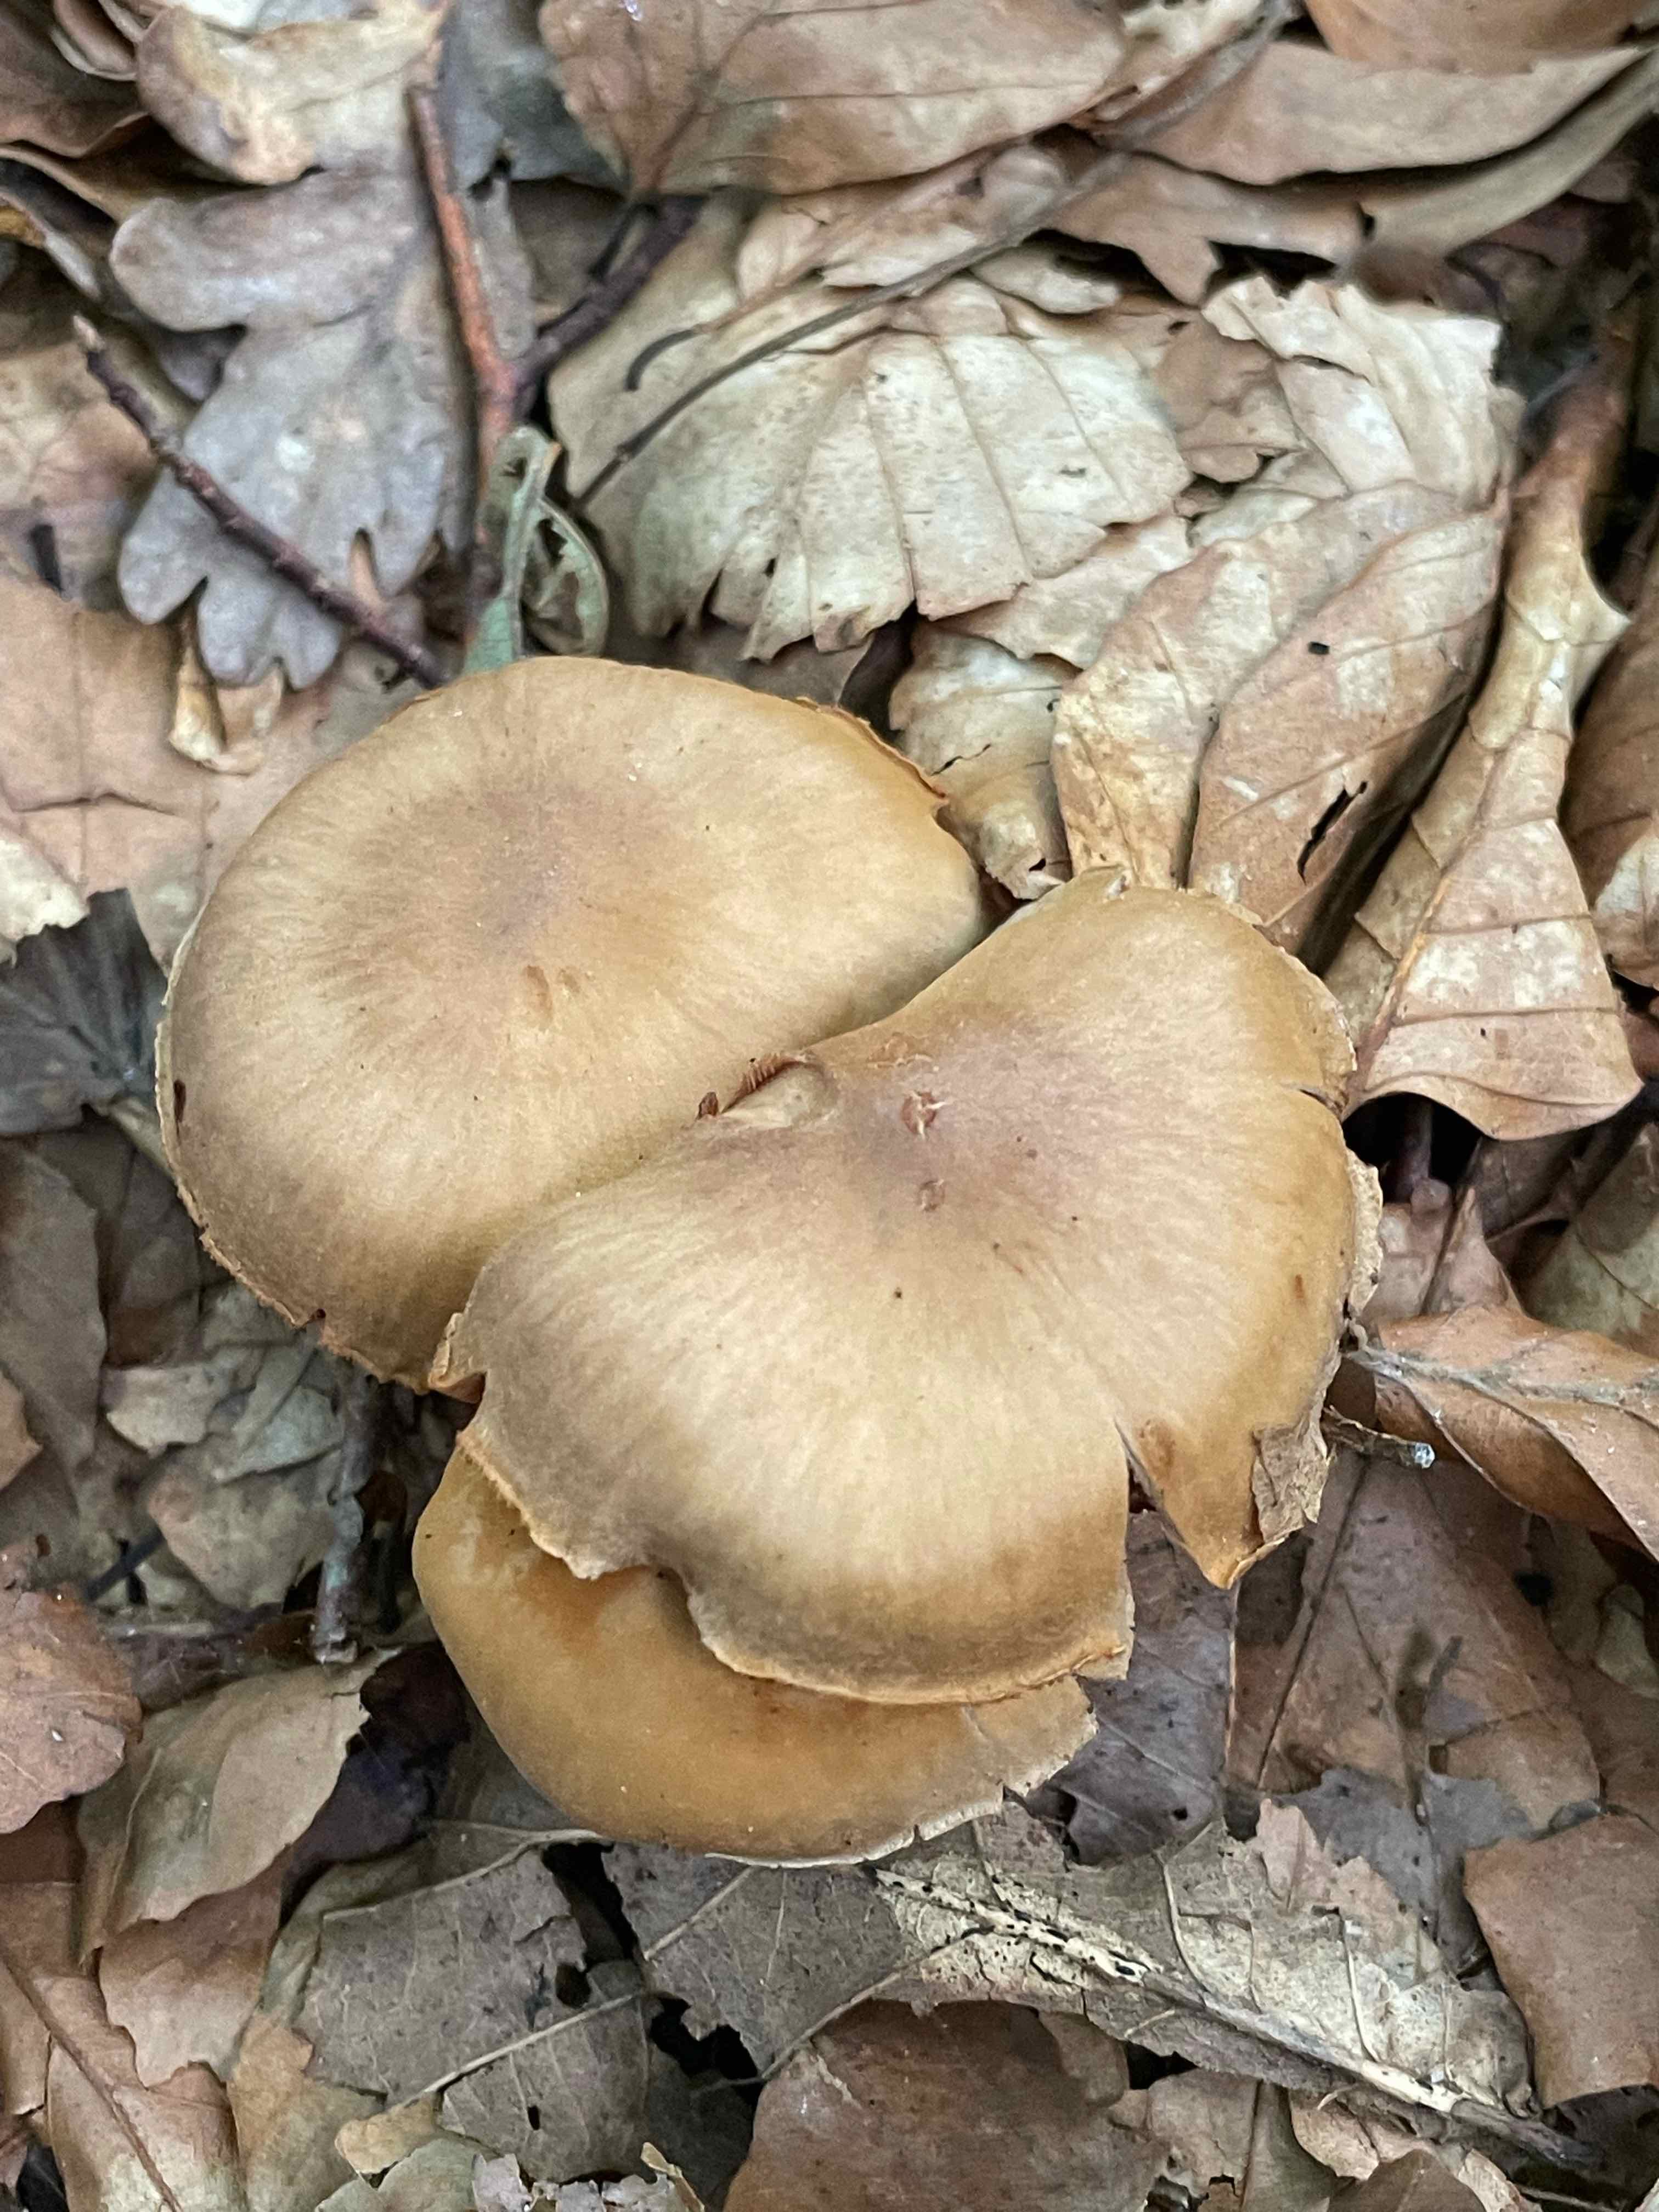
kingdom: Fungi
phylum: Basidiomycota
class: Agaricomycetes
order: Agaricales
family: Cortinariaceae
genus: Cortinarius
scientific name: Cortinarius
